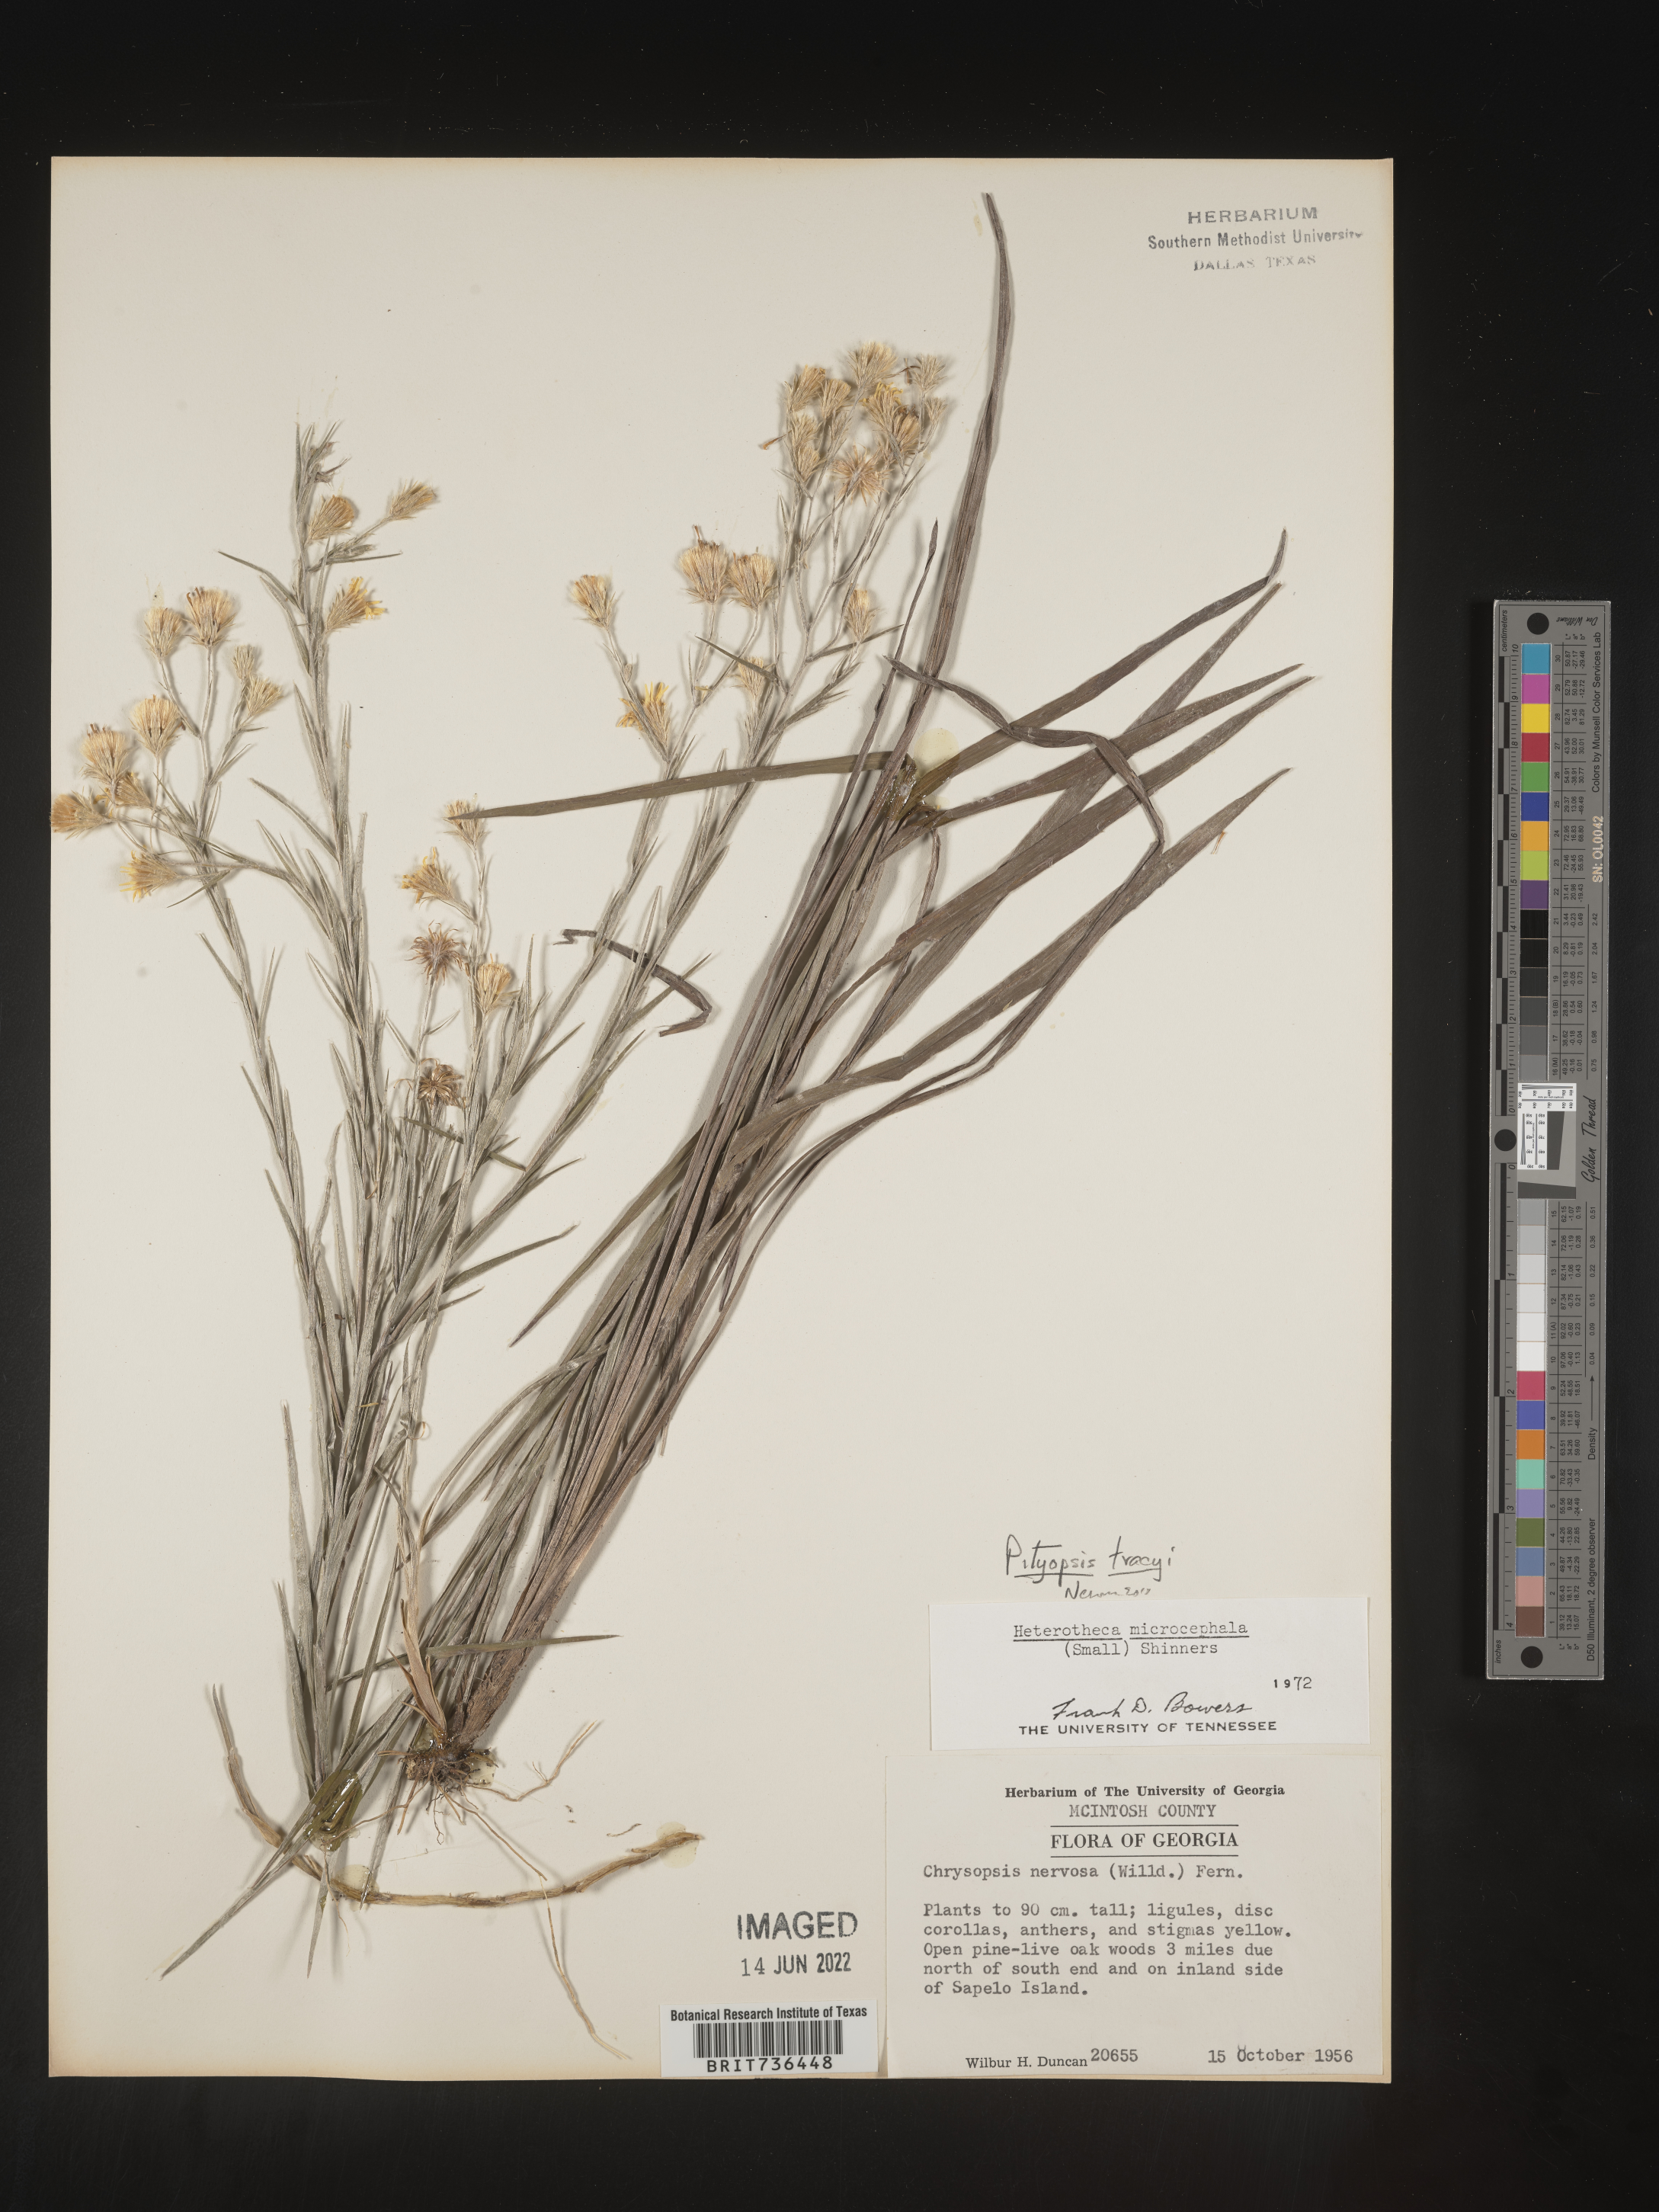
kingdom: Plantae
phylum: Tracheophyta
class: Magnoliopsida
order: Asterales
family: Asteraceae
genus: Pityopsis
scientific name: Pityopsis tracyi
